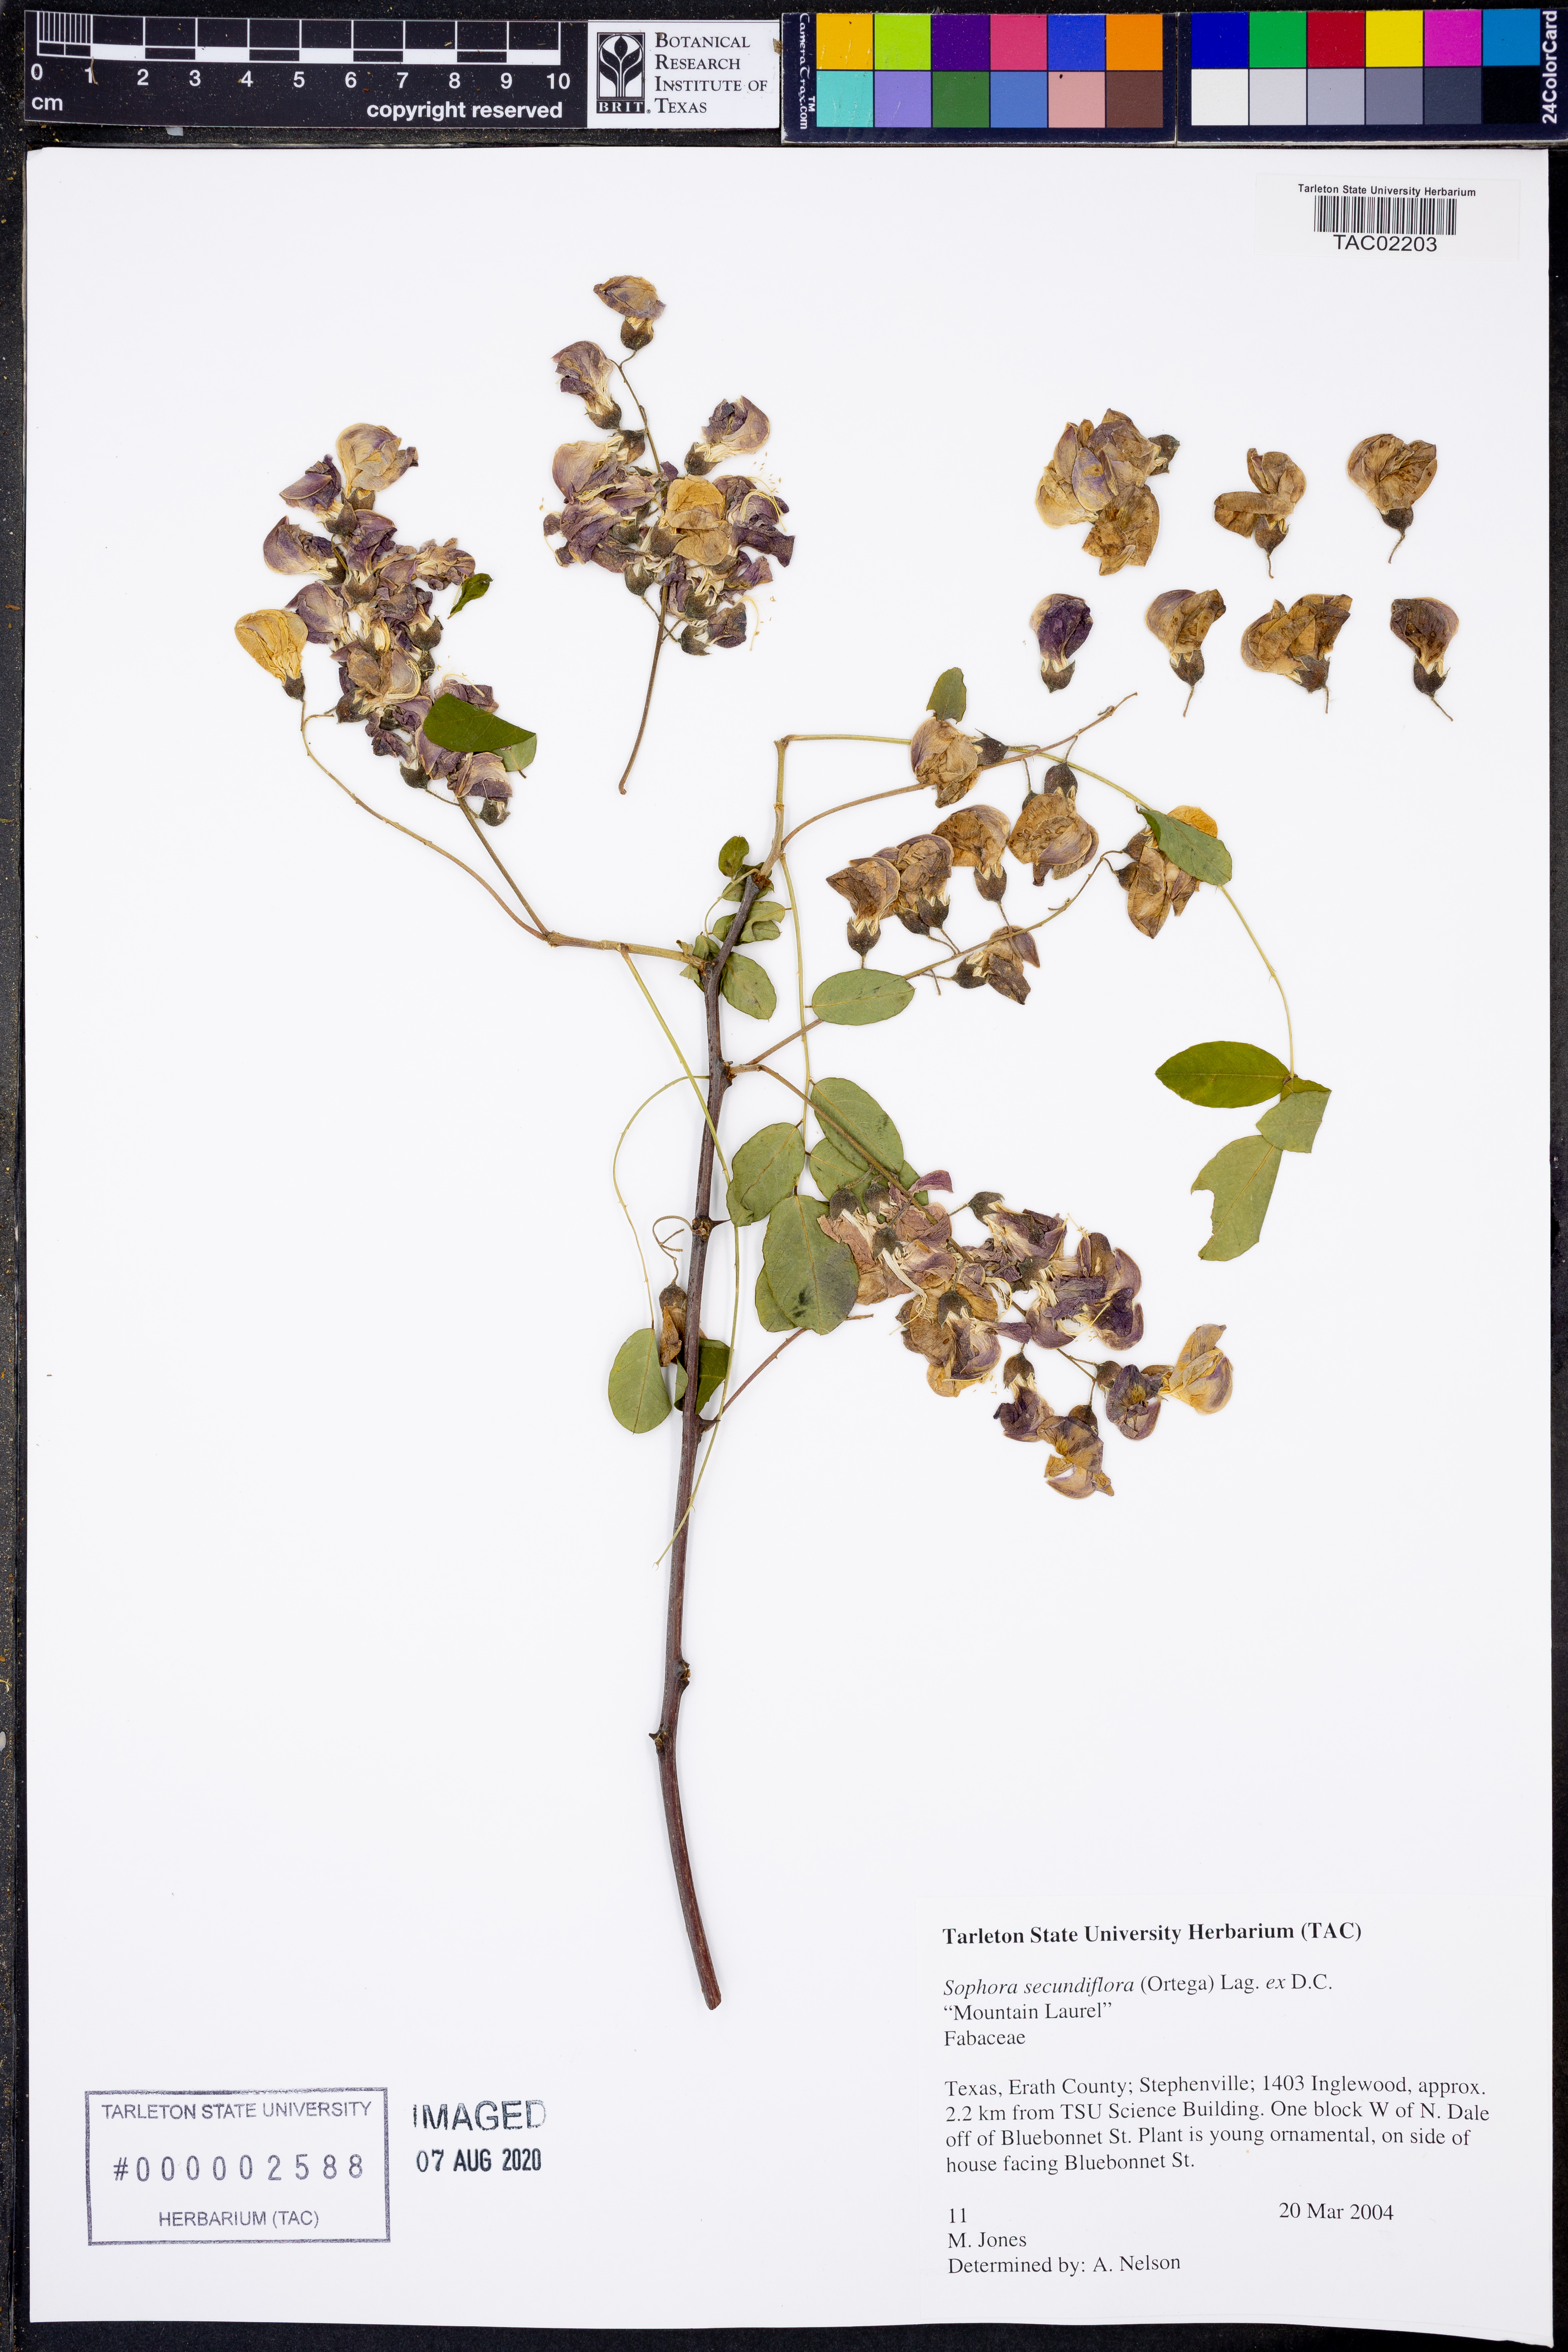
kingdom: Plantae
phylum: Tracheophyta
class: Magnoliopsida
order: Fabales
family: Fabaceae
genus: Dermatophyllum
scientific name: Dermatophyllum secundiflorum
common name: Texas-mountain-laurel
